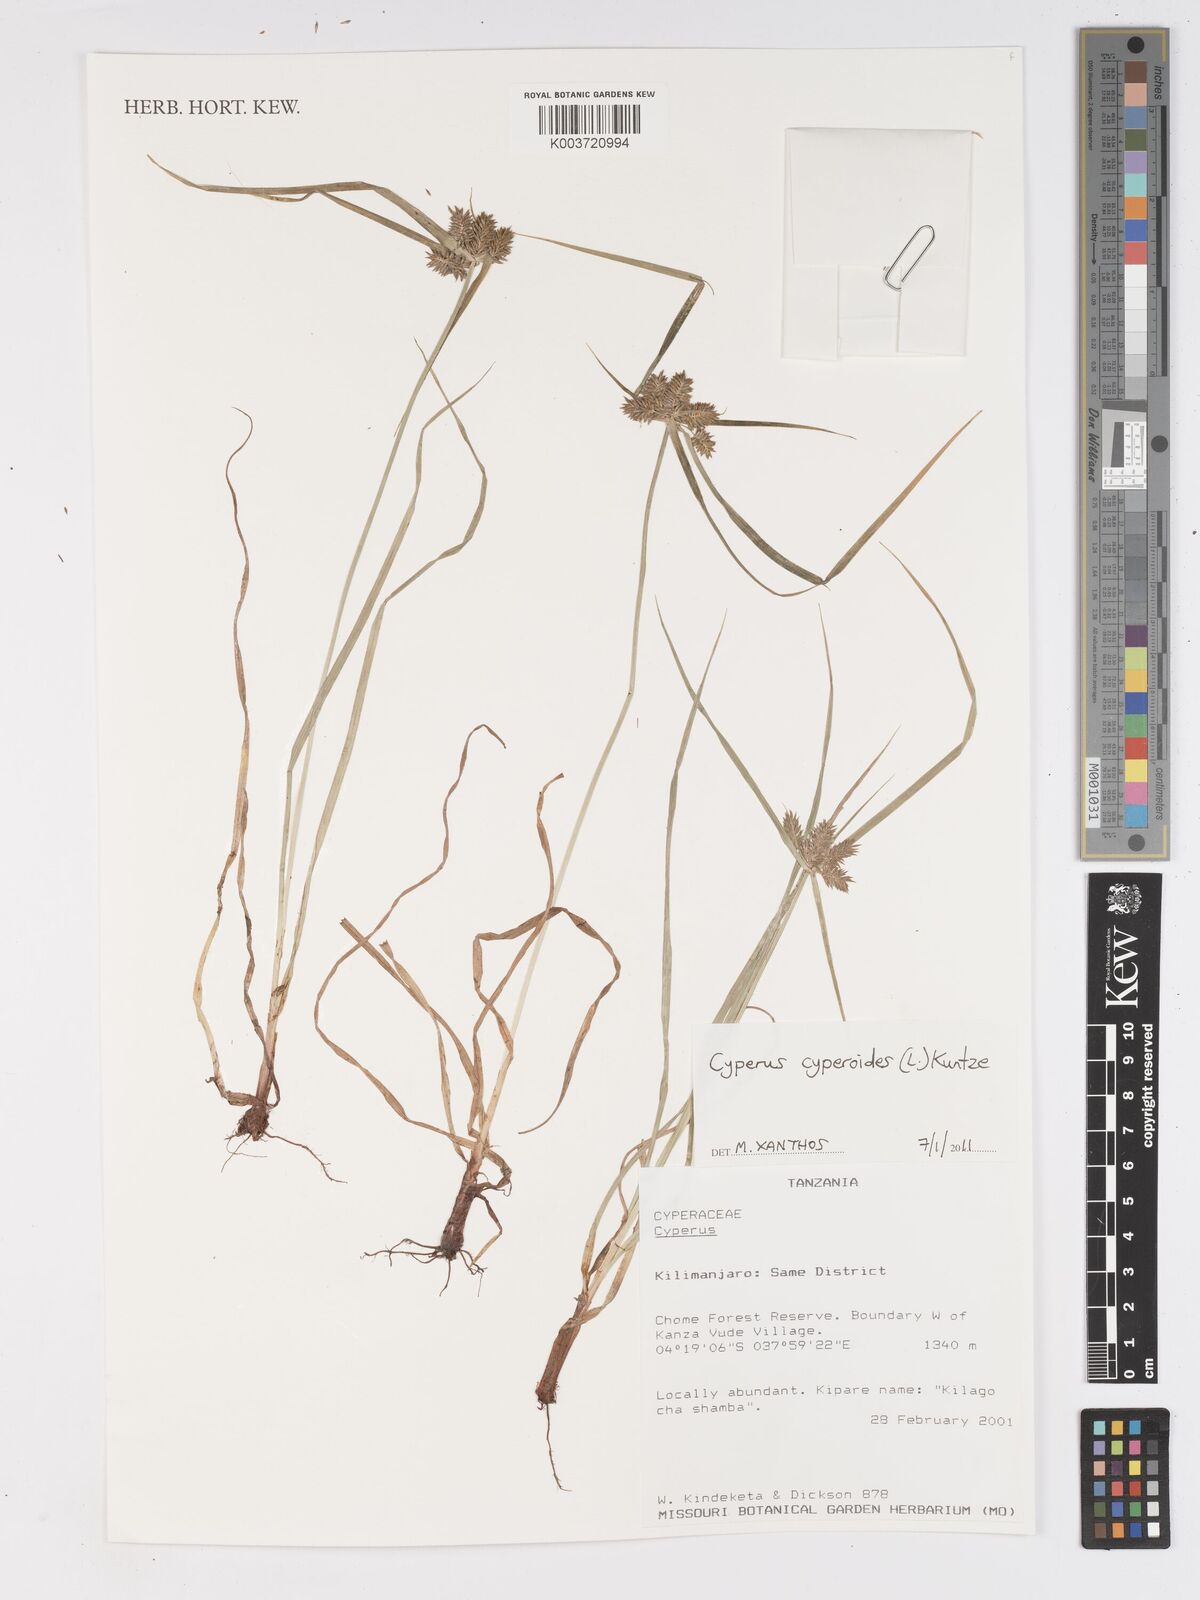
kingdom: Plantae
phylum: Tracheophyta
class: Liliopsida
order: Poales
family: Cyperaceae
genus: Cyperus
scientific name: Cyperus
